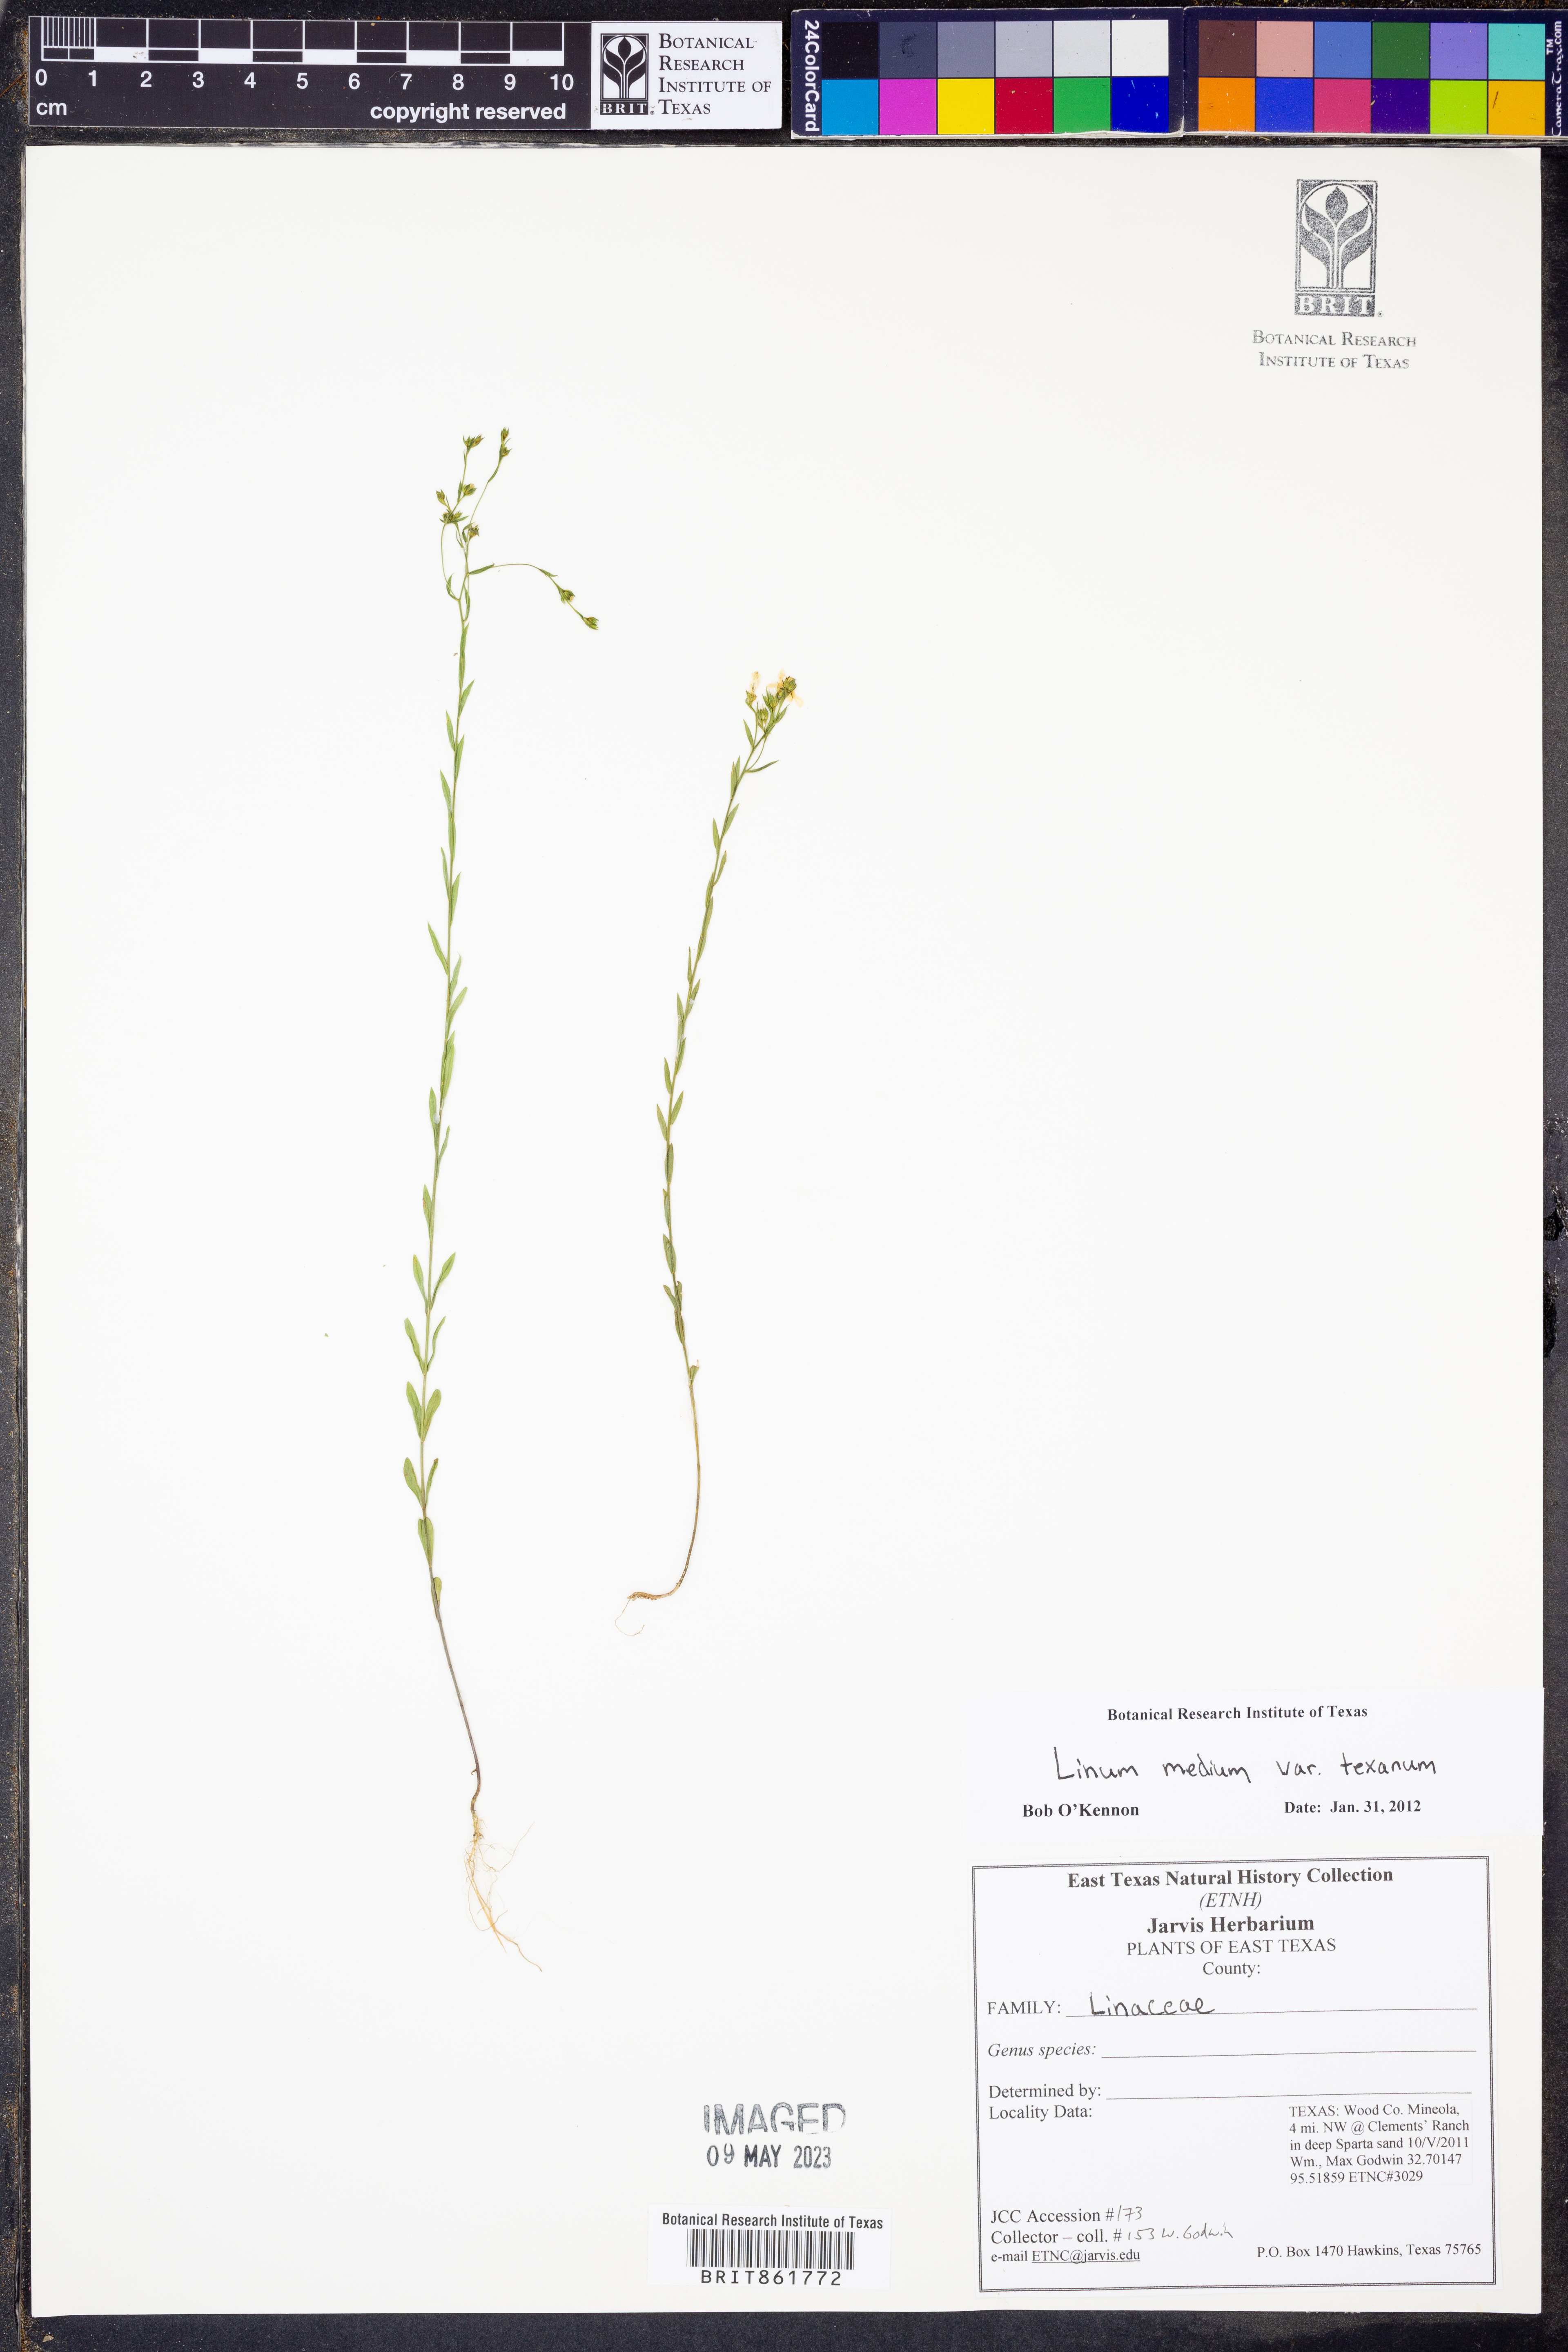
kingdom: Plantae
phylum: Tracheophyta
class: Magnoliopsida
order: Malpighiales
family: Linaceae
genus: Linum
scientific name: Linum medium
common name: Stiff yellow flax
